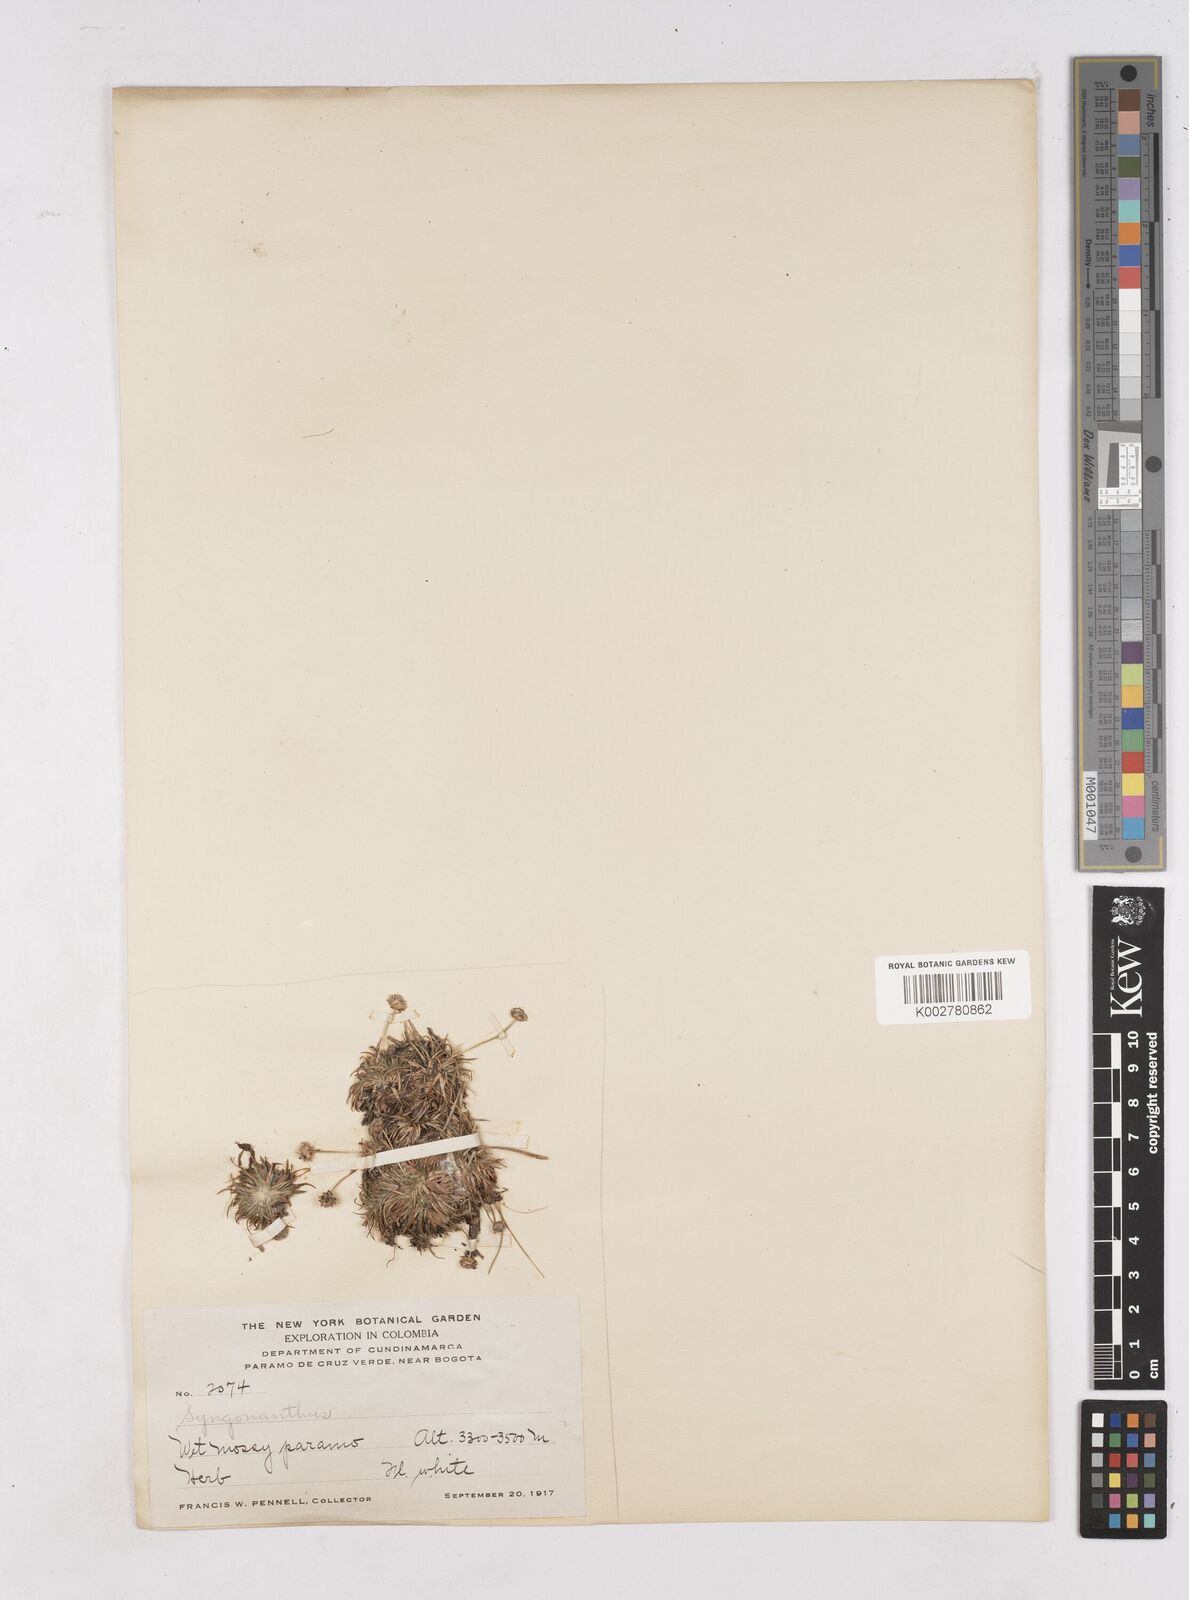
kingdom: Plantae
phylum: Tracheophyta
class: Liliopsida
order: Poales
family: Eriocaulaceae
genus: Paepalanthus
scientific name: Paepalanthus
